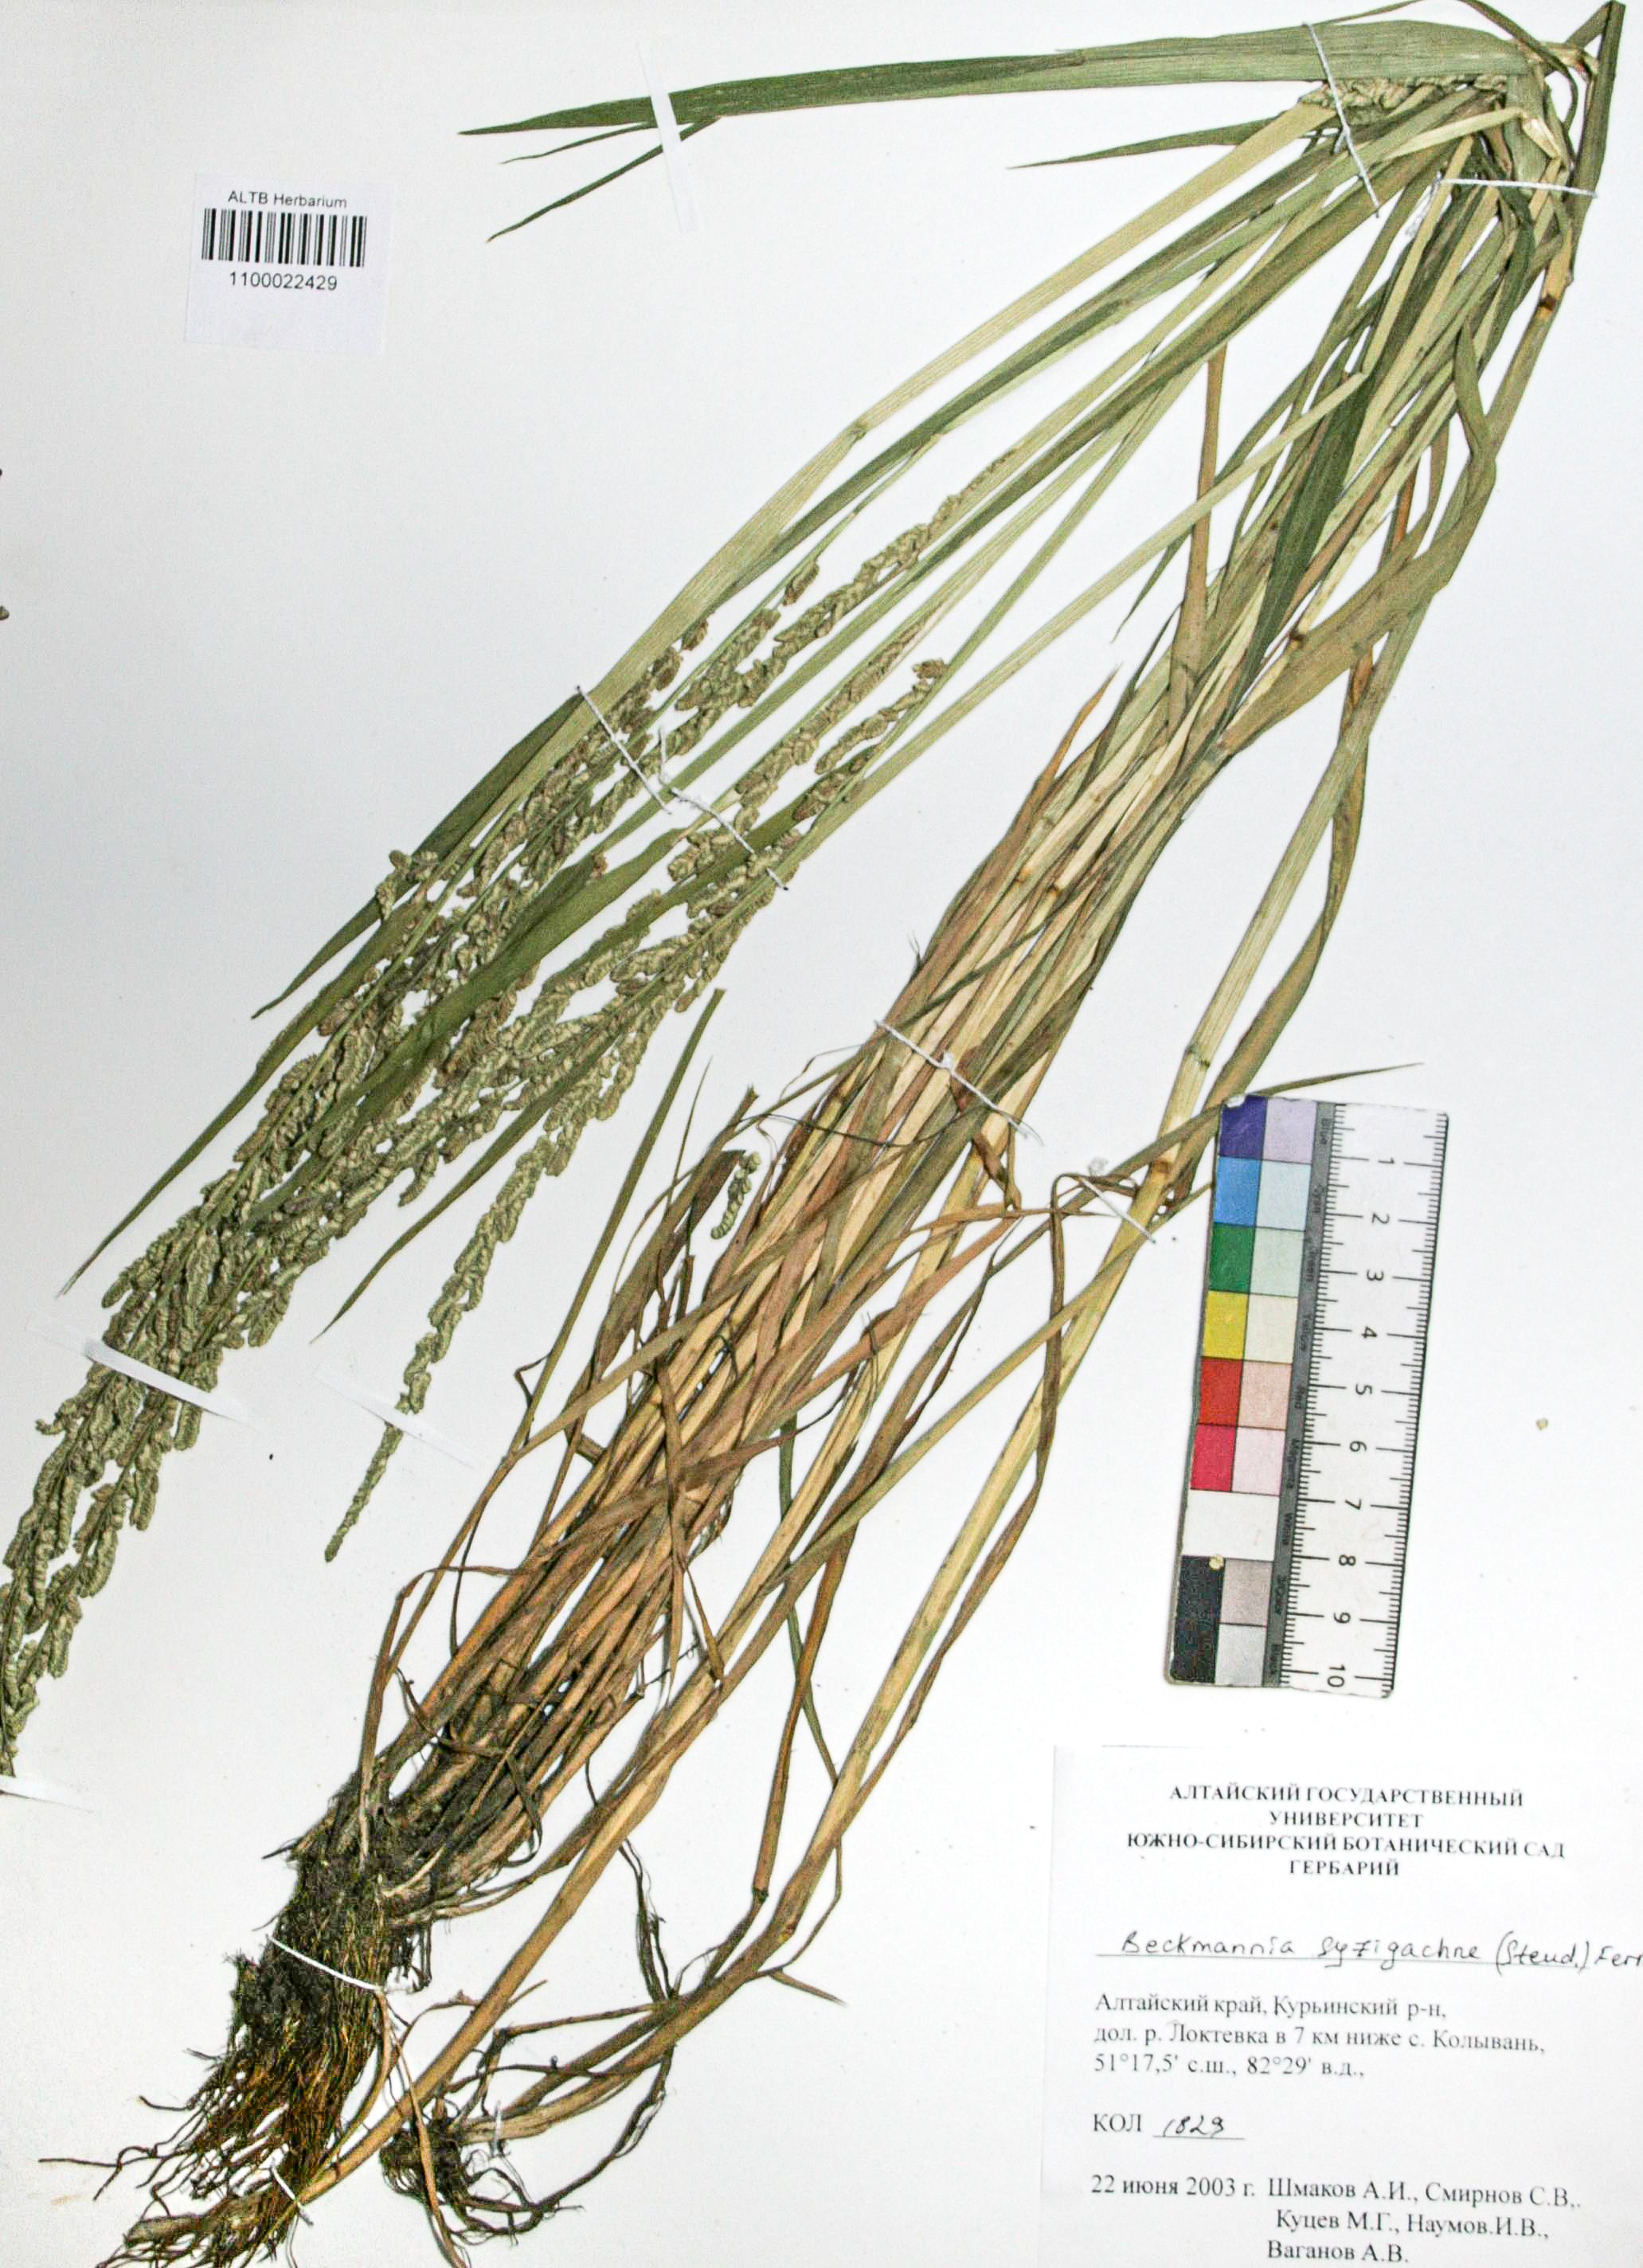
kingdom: Plantae
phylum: Tracheophyta
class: Liliopsida
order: Poales
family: Poaceae
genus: Beckmannia
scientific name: Beckmannia syzigachne
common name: American slough-grass
